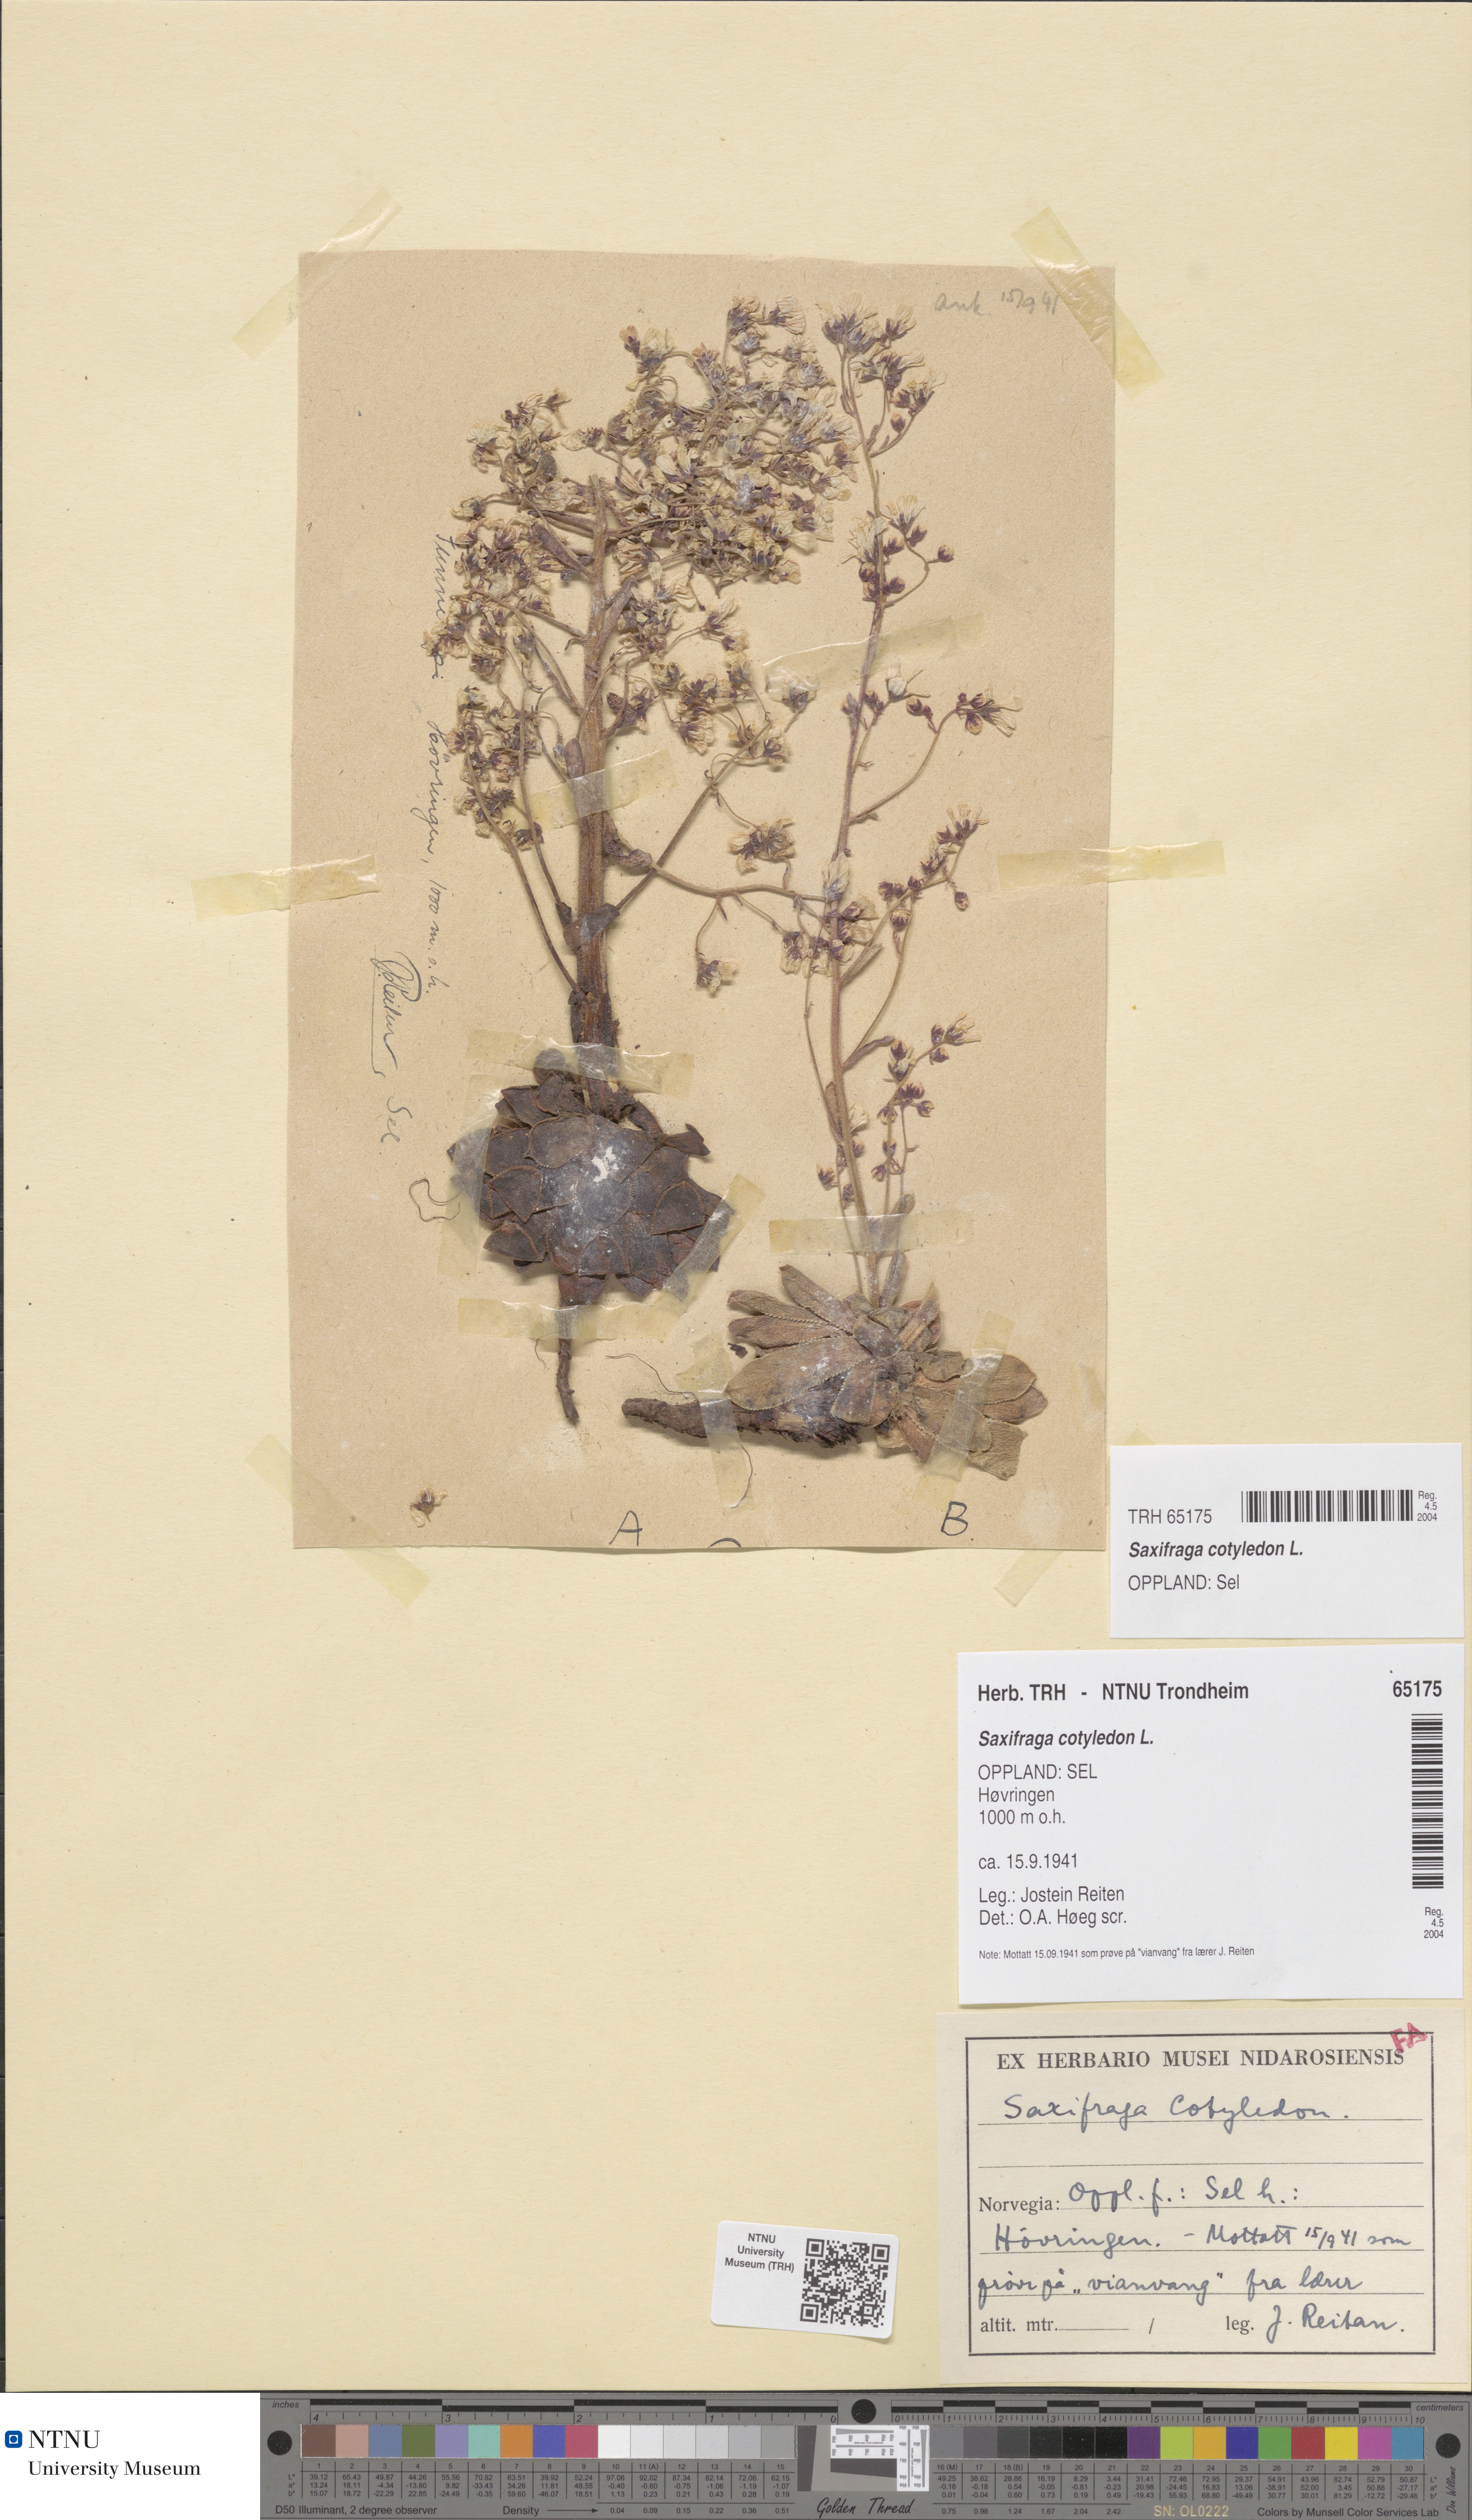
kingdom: Plantae
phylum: Tracheophyta
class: Magnoliopsida
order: Saxifragales
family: Saxifragaceae
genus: Saxifraga
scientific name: Saxifraga cotyledon
